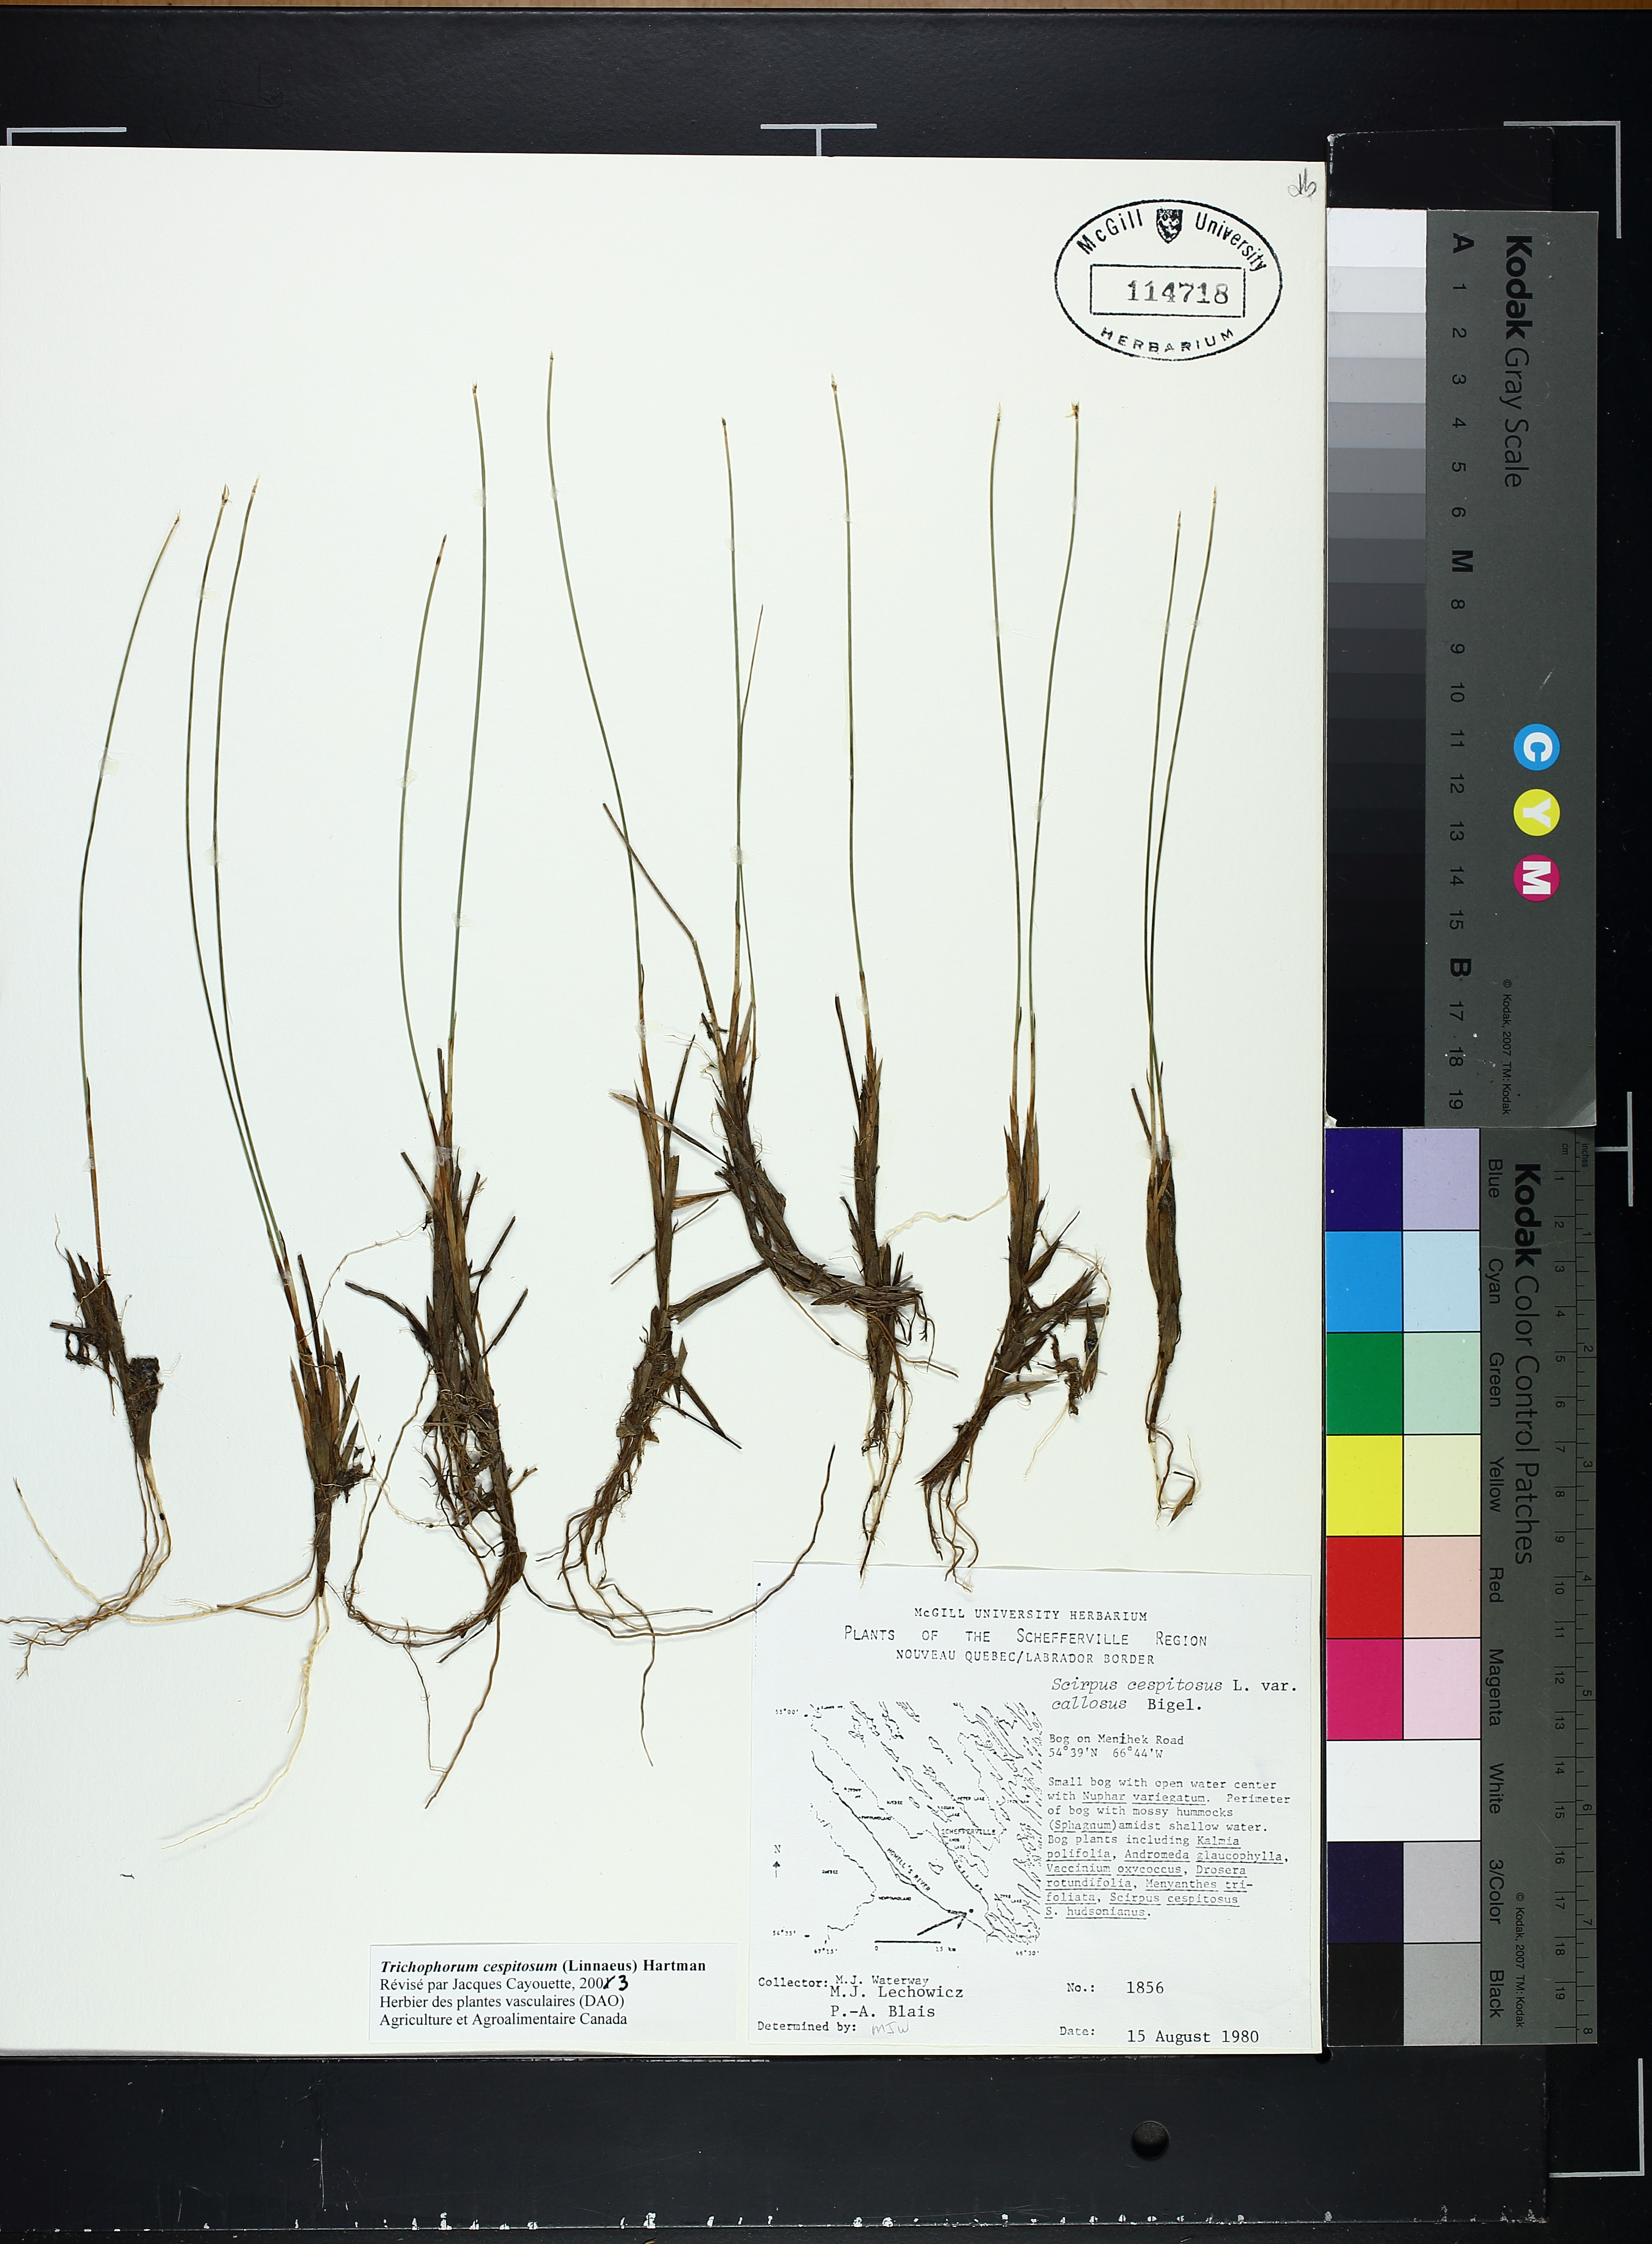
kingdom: Plantae
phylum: Tracheophyta
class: Liliopsida
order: Poales
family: Cyperaceae
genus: Trichophorum
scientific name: Trichophorum cespitosum
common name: Cespitose bulrush
